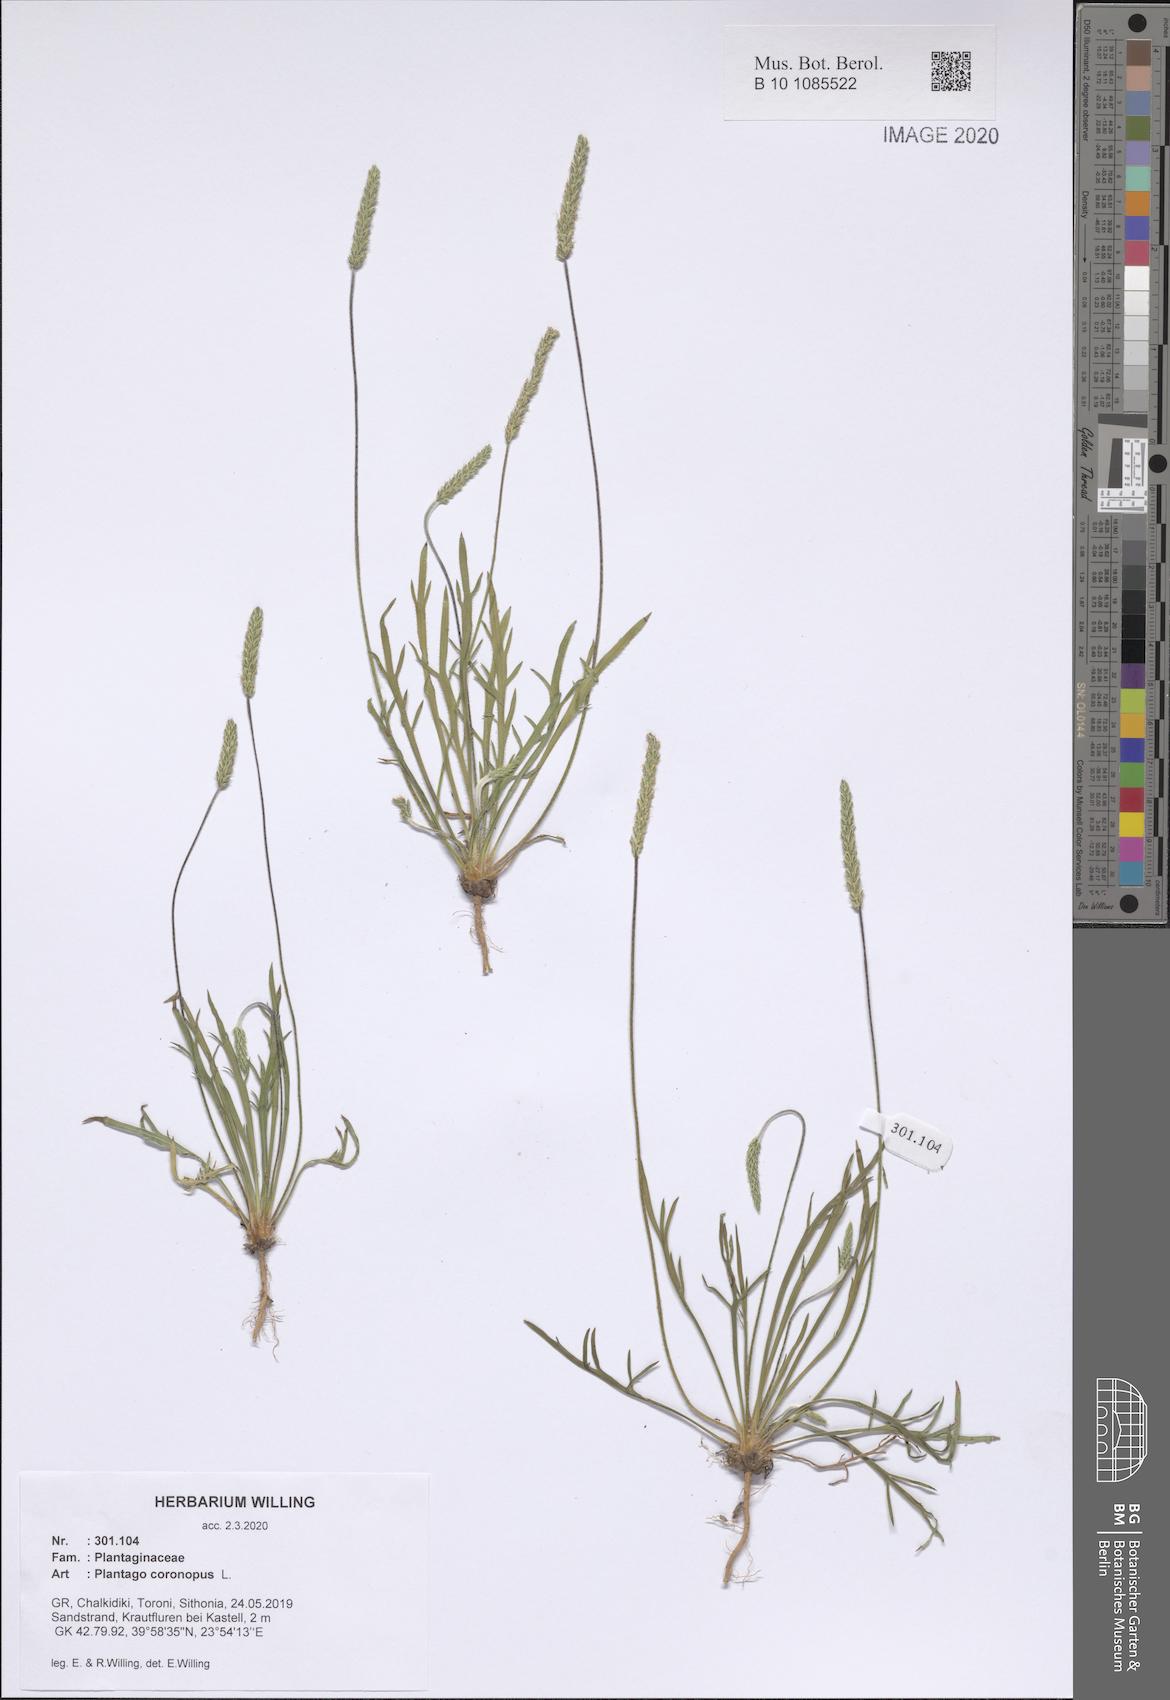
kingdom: Plantae
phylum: Tracheophyta
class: Magnoliopsida
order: Lamiales
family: Plantaginaceae
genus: Plantago
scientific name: Plantago coronopus
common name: Buck's-horn plantain
